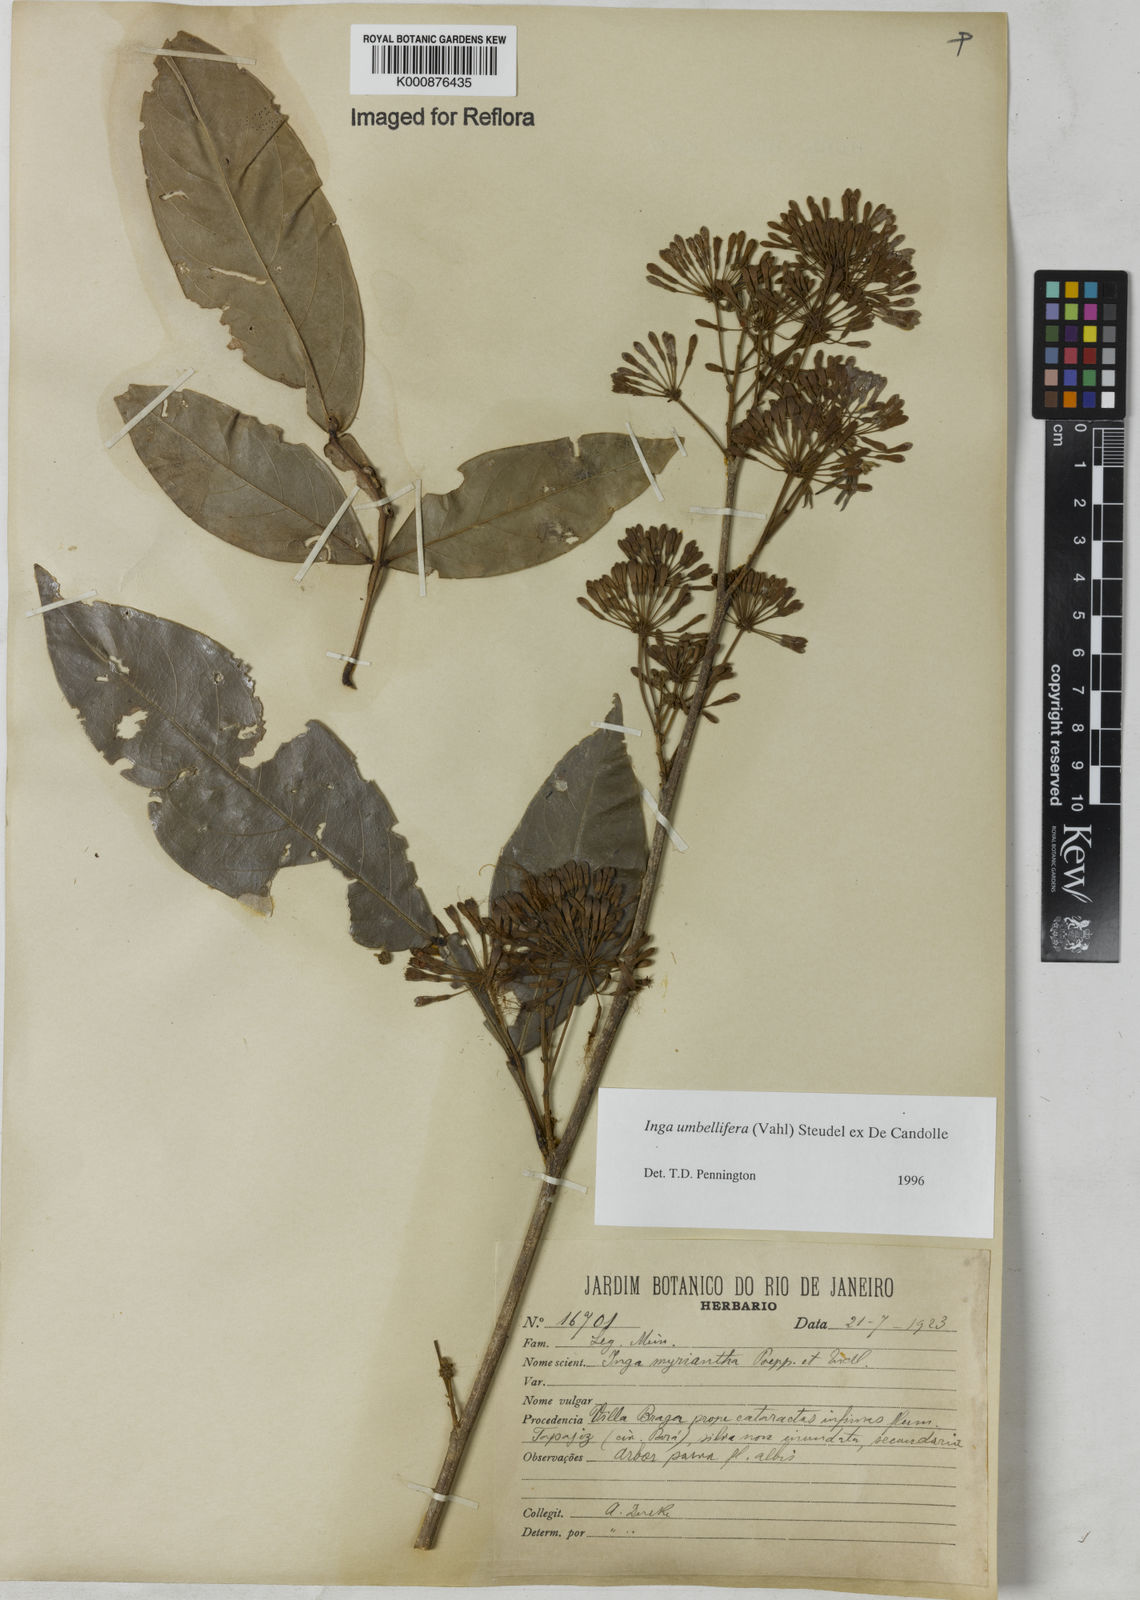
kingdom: Plantae
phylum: Tracheophyta
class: Magnoliopsida
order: Fabales
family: Fabaceae
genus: Inga
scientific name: Inga umbellifera
